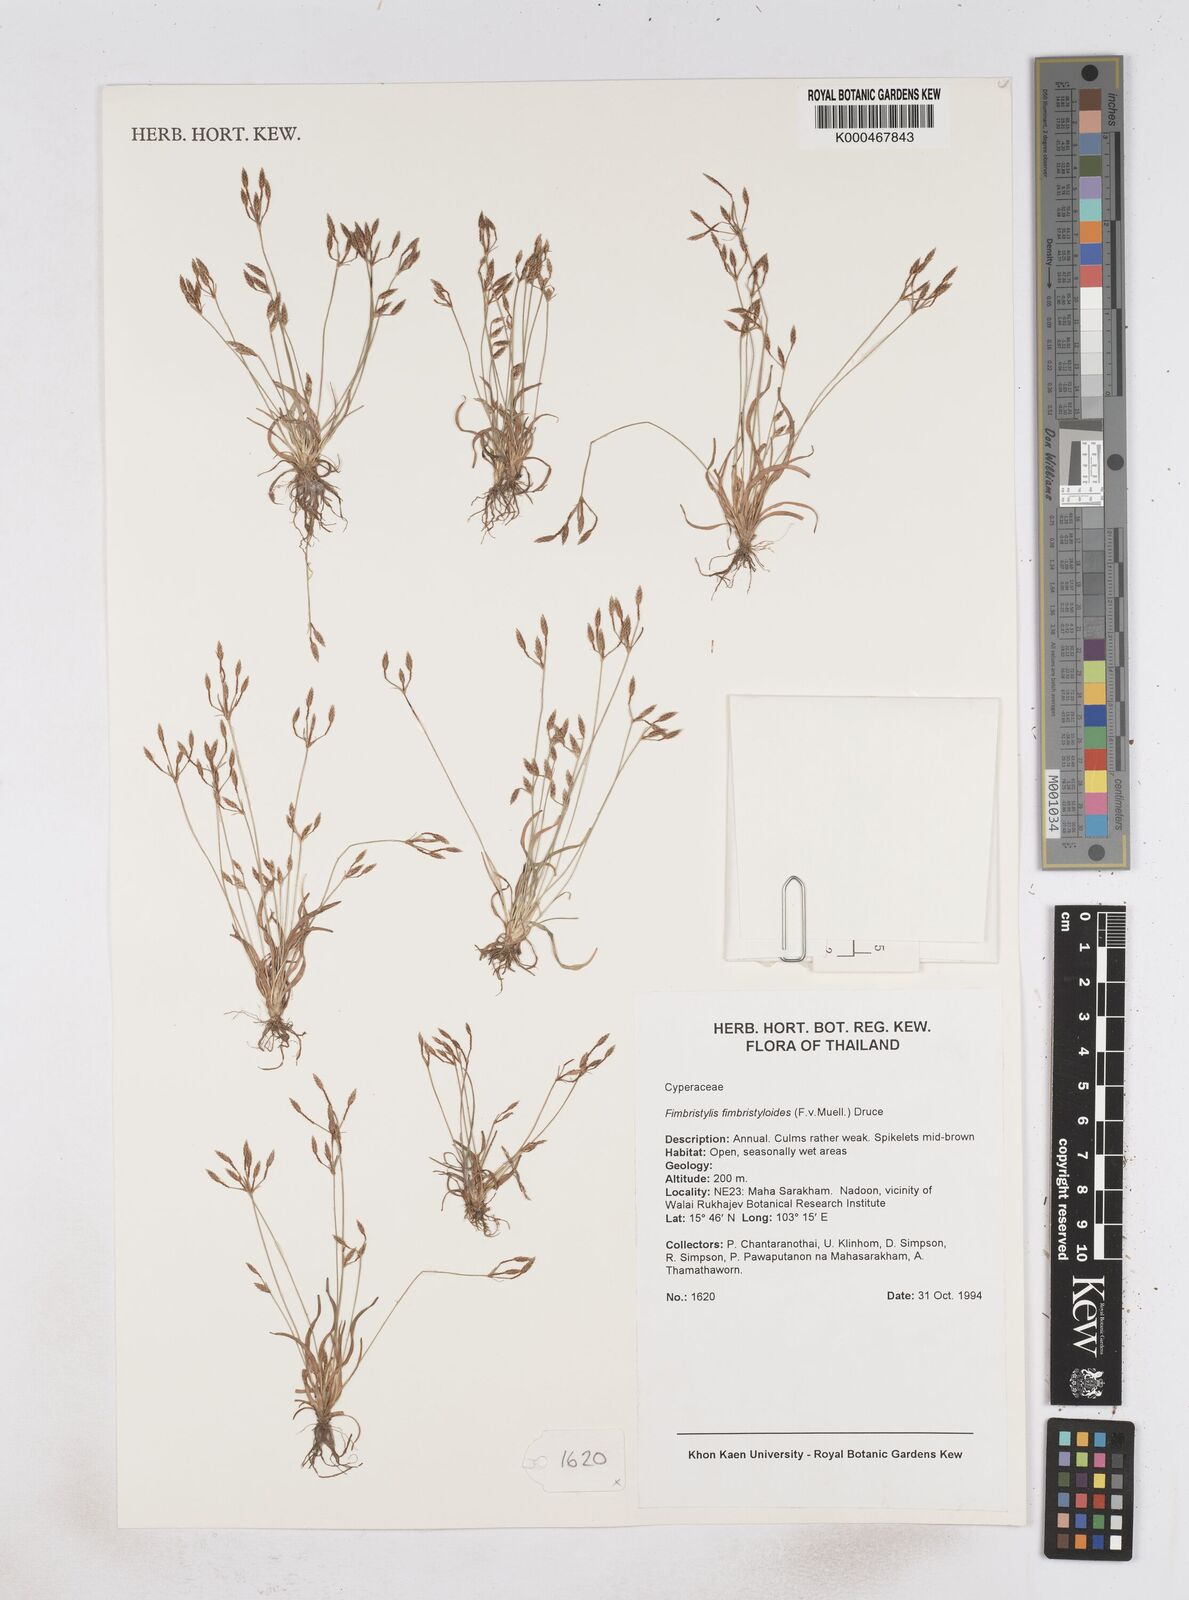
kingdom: Plantae
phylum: Tracheophyta
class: Liliopsida
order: Poales
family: Cyperaceae
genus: Fimbristylis
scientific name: Fimbristylis fimbristyloides
